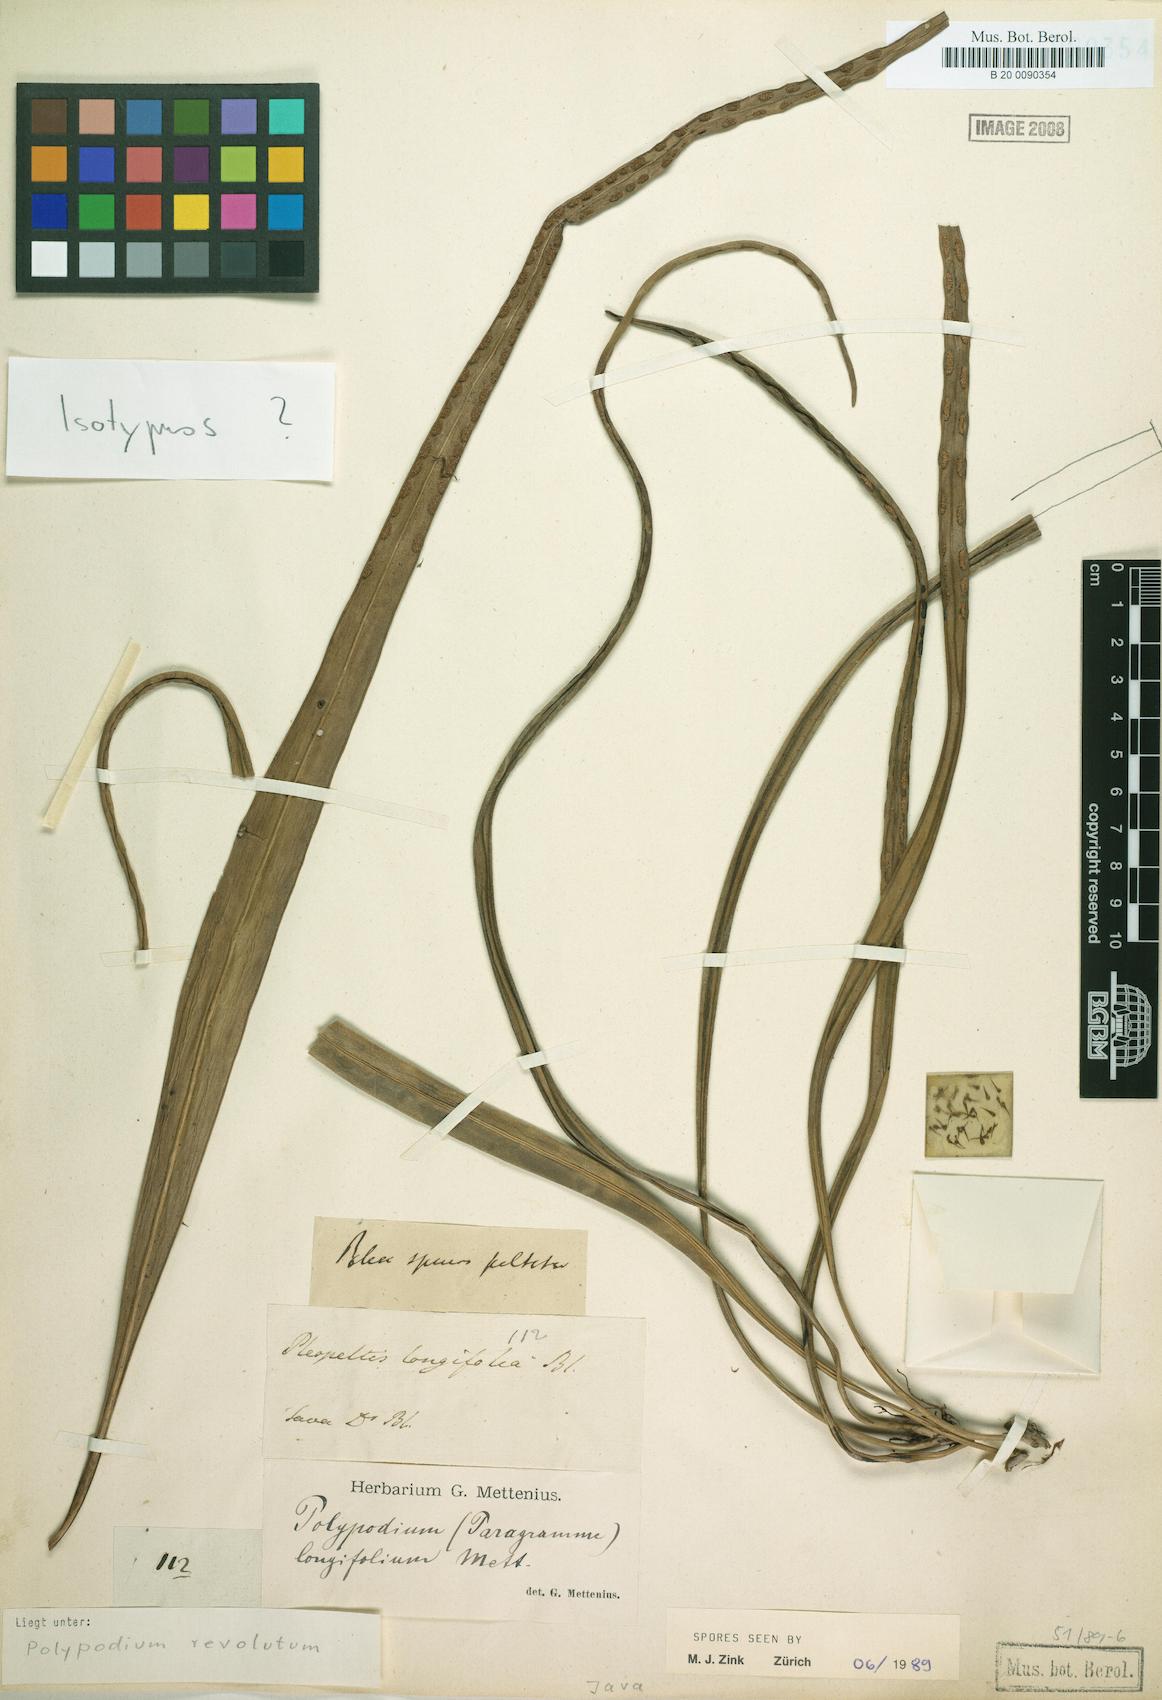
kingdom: Plantae
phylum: Tracheophyta
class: Polypodiopsida
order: Polypodiales
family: Polypodiaceae
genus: Lepisorus
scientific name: Lepisorus longifolius
